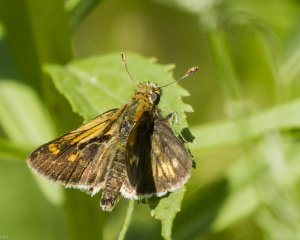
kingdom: Animalia
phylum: Arthropoda
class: Insecta
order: Lepidoptera
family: Hesperiidae
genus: Polites
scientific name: Polites themistocles
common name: Tawny-edged Skipper
